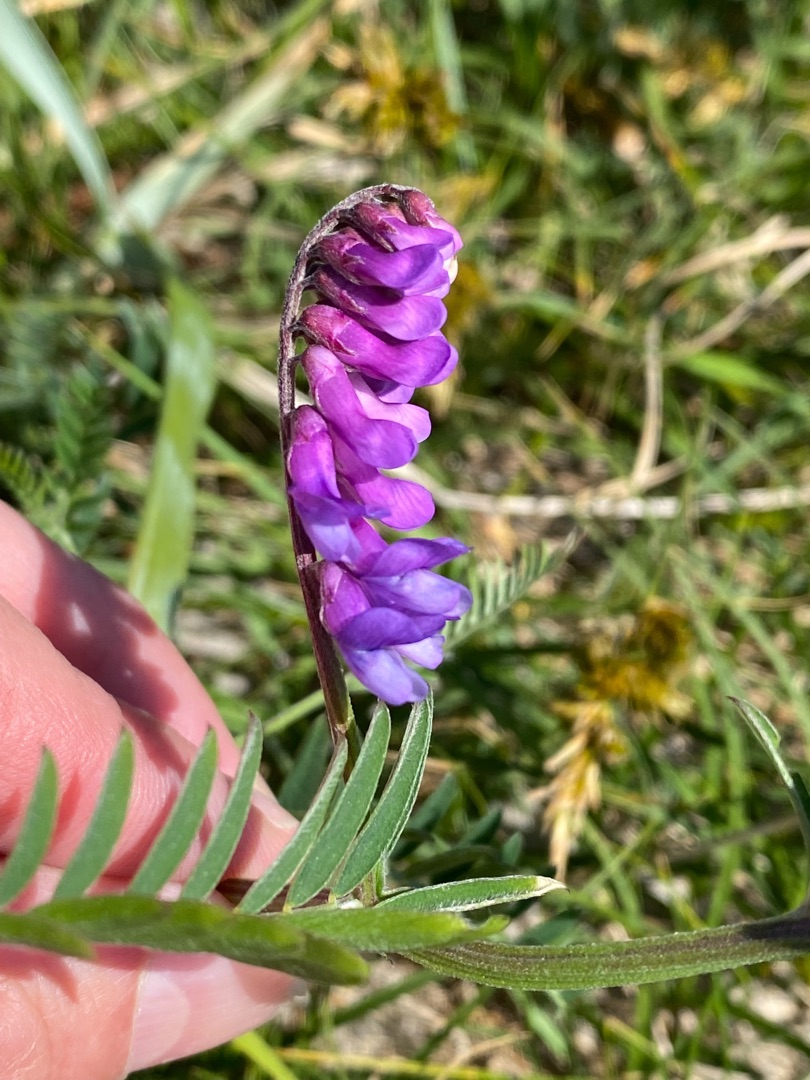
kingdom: Plantae
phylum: Tracheophyta
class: Magnoliopsida
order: Fabales
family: Fabaceae
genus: Vicia
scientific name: Vicia cracca
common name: Muse-vikke
